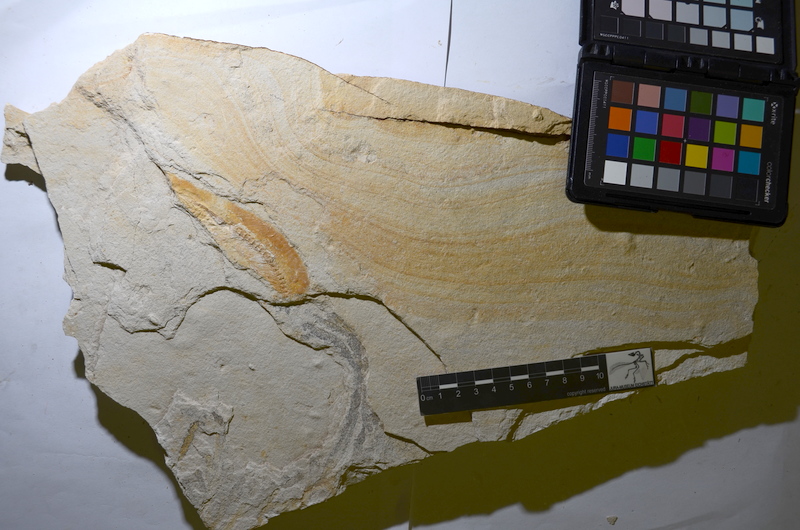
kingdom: Animalia
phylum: Chordata
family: Ascalaboidae
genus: Tharsis
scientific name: Tharsis
